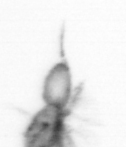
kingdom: Animalia
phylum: Arthropoda
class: Copepoda
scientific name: Copepoda
